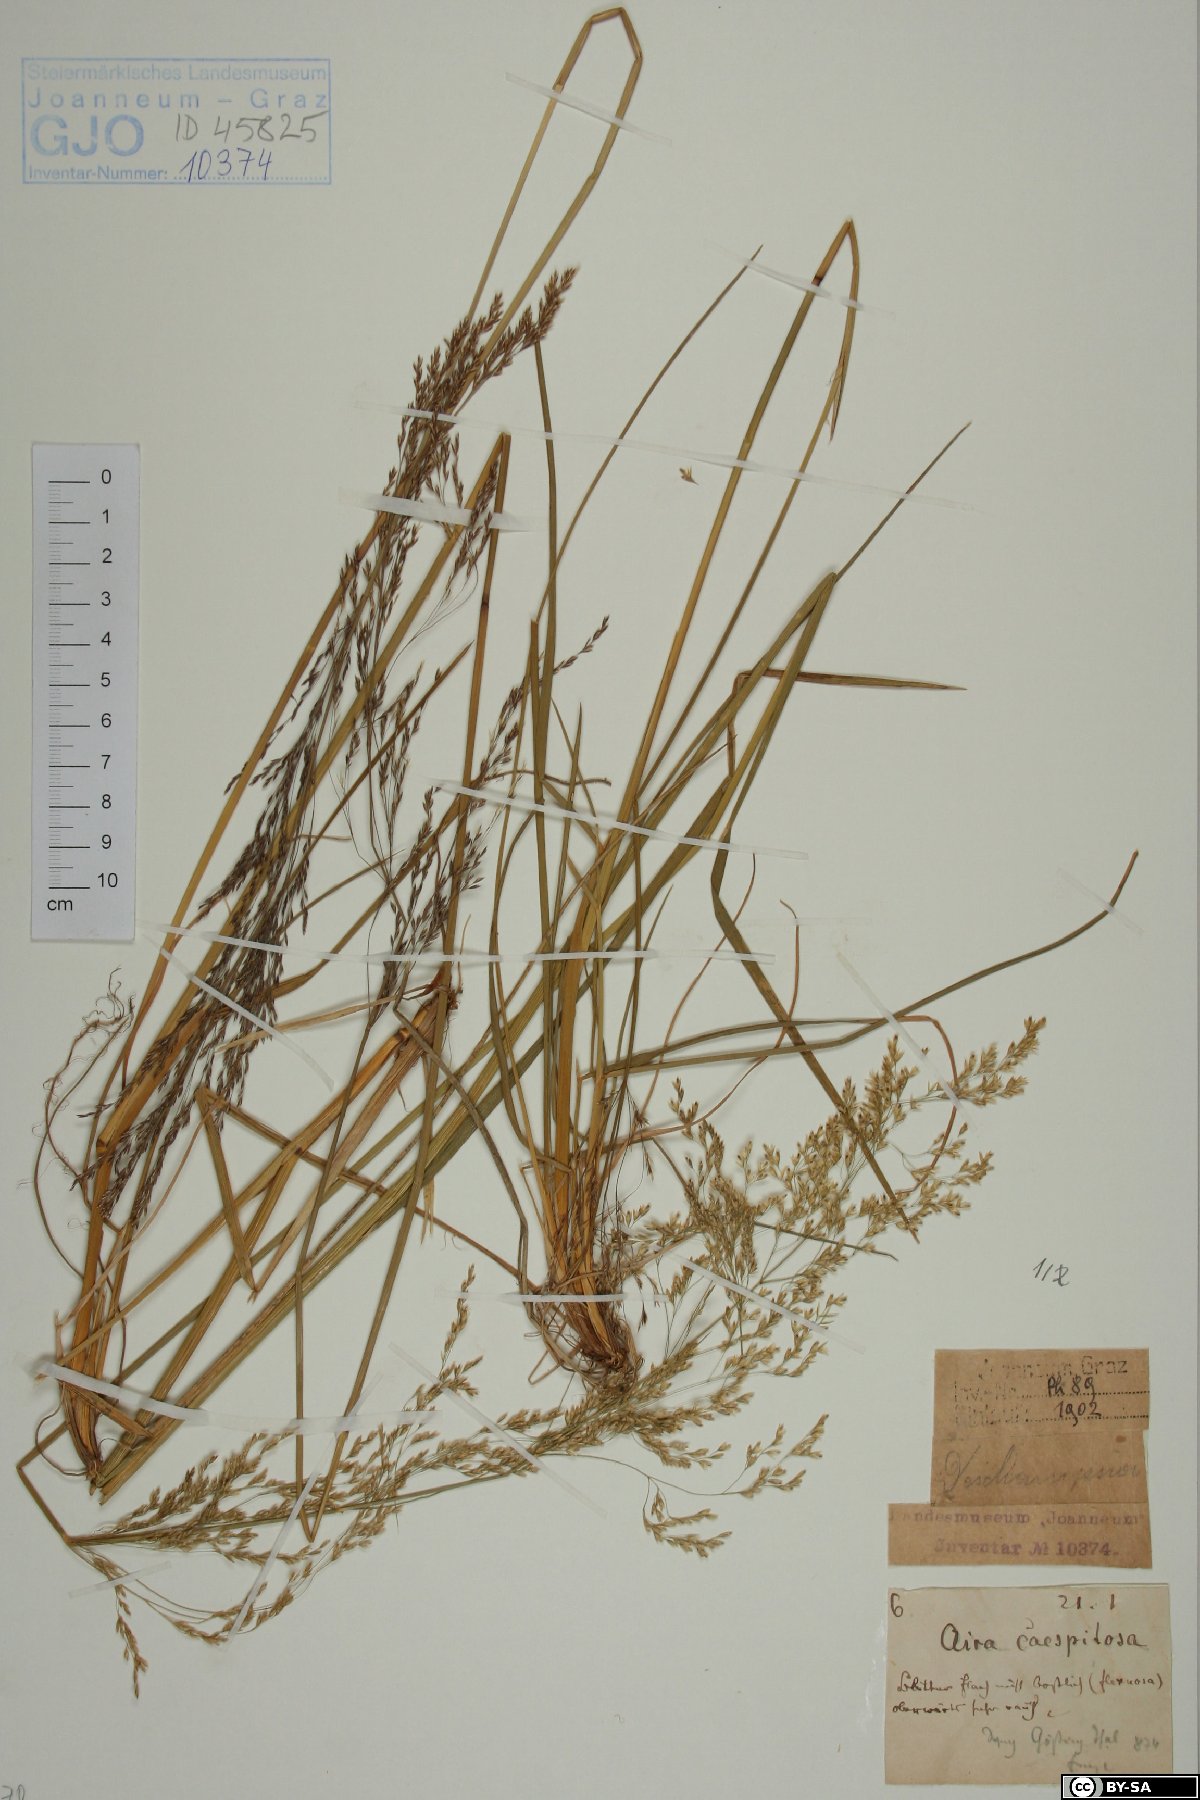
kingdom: Plantae
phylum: Tracheophyta
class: Liliopsida
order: Poales
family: Poaceae
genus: Deschampsia
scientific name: Deschampsia cespitosa
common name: Tufted hair-grass
